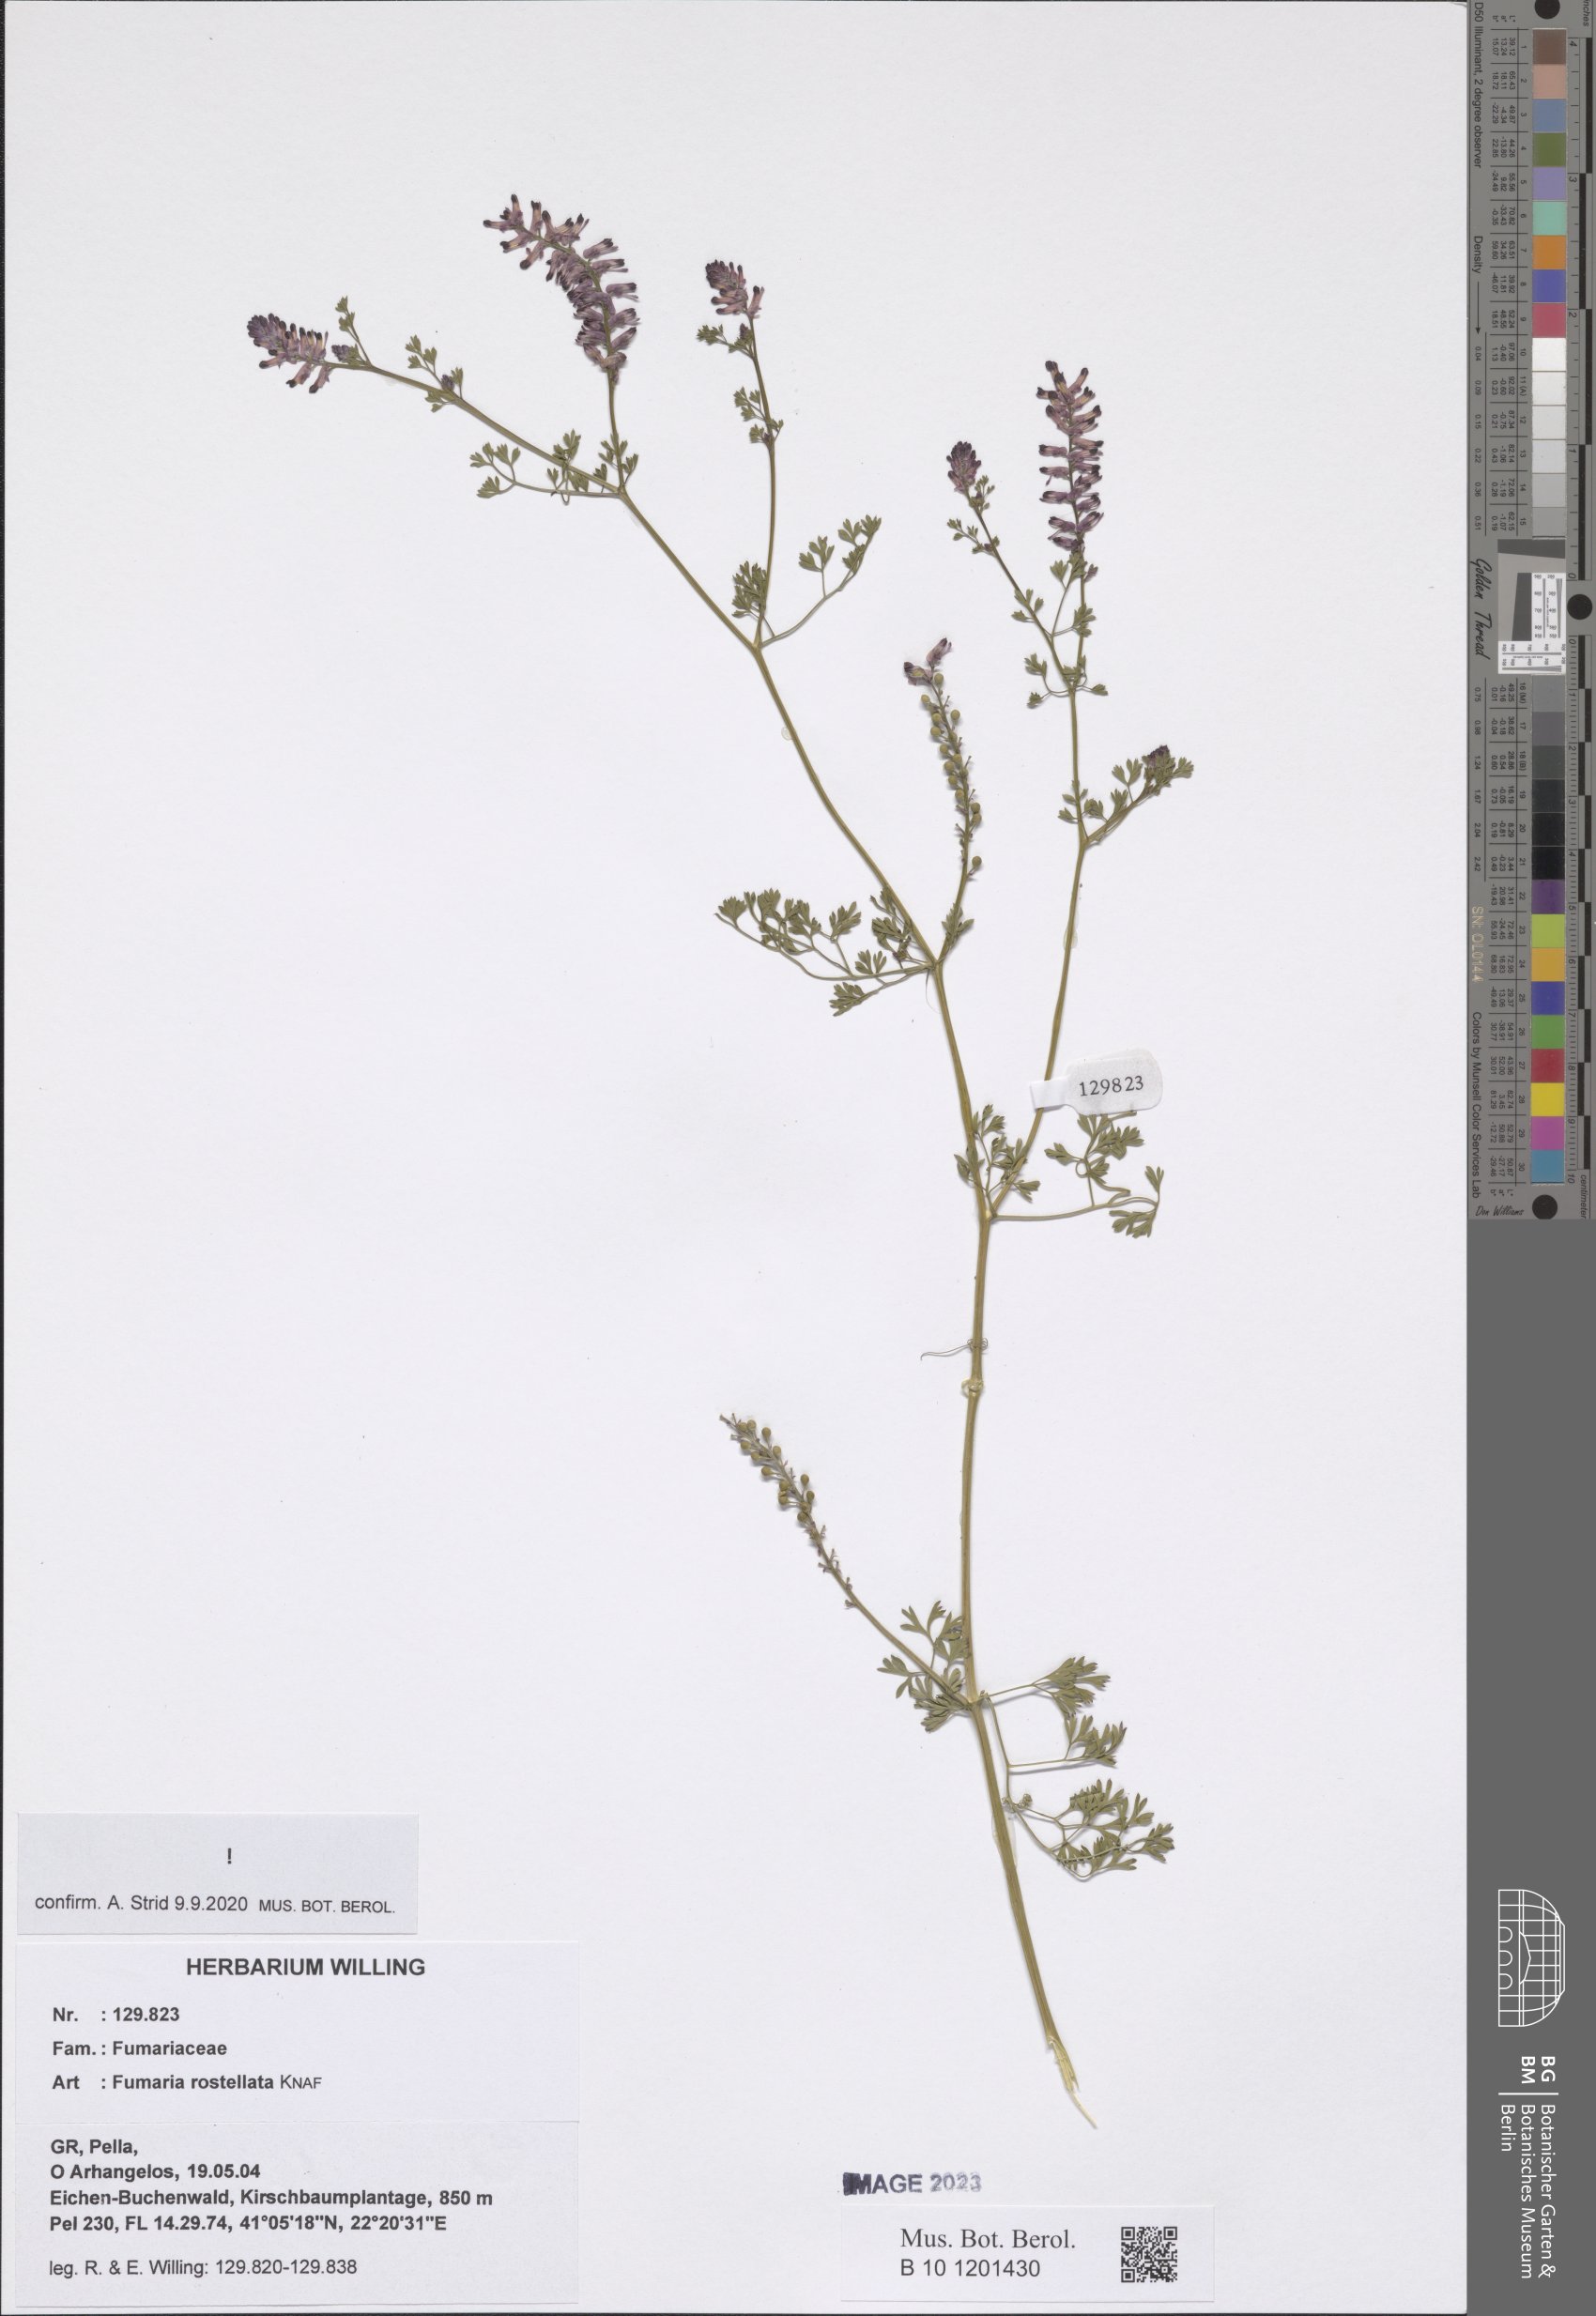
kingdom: Plantae
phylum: Tracheophyta
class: Magnoliopsida
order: Ranunculales
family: Papaveraceae
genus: Fumaria
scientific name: Fumaria rostellata
